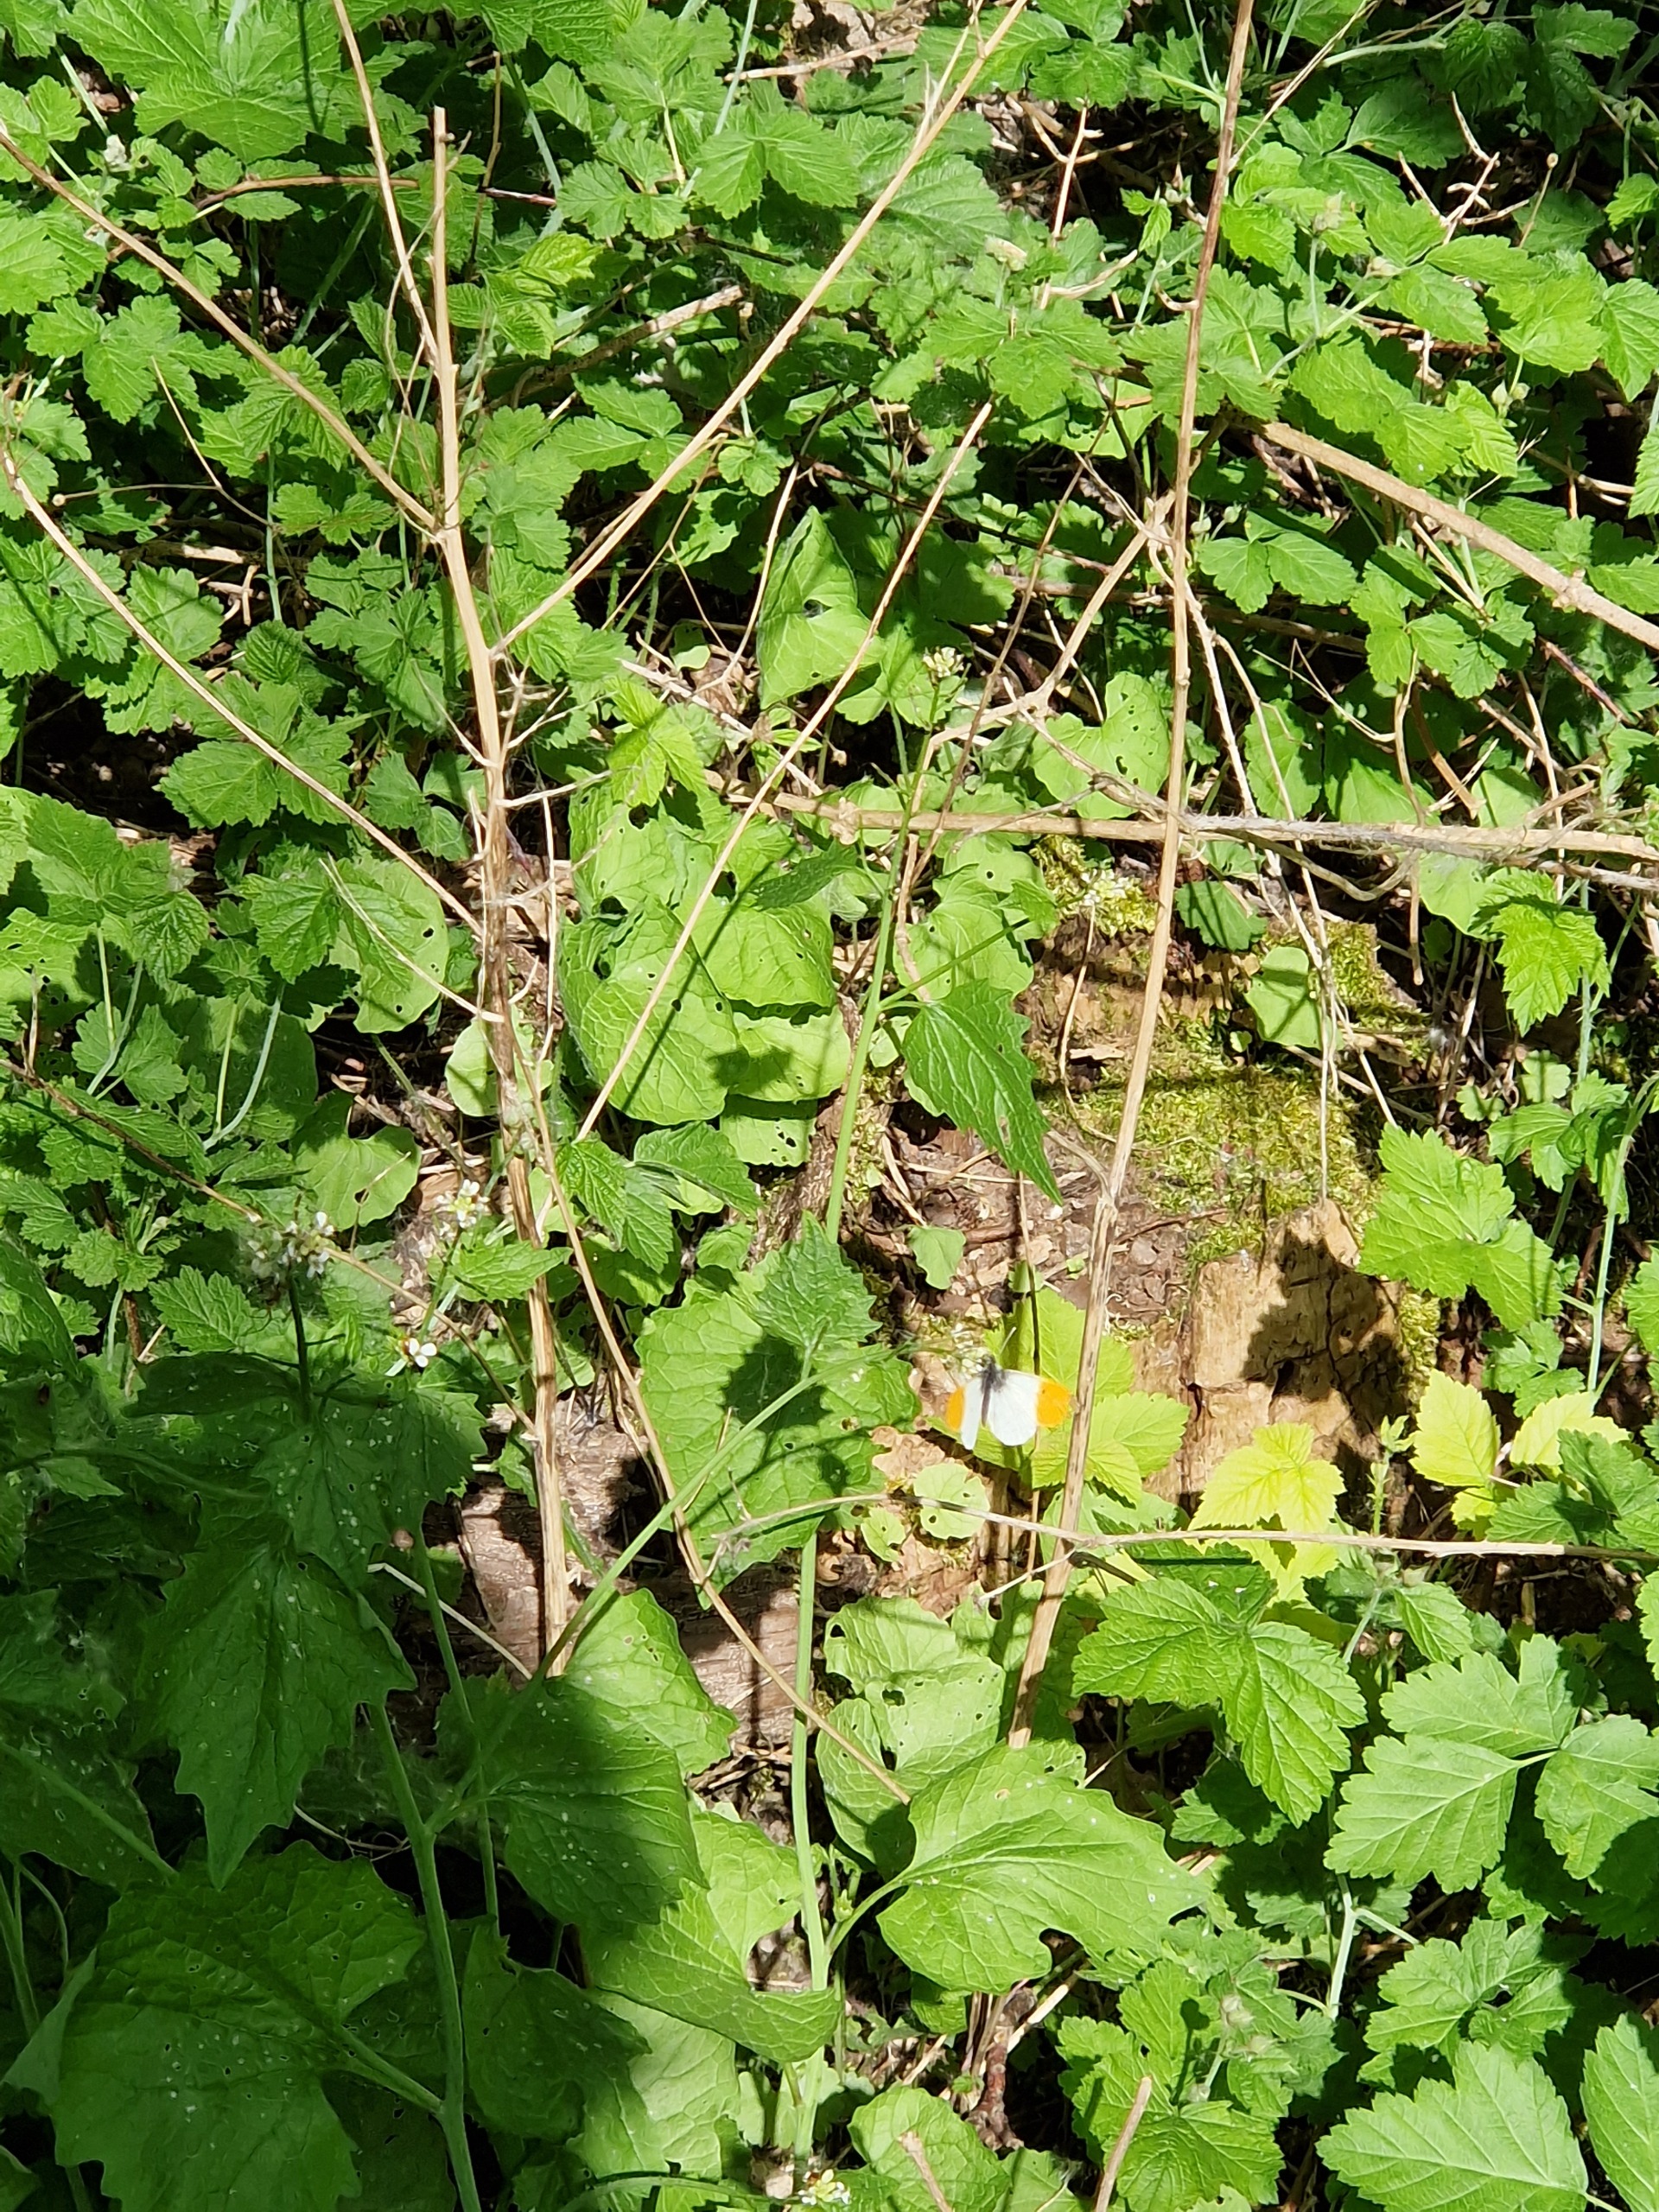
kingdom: Animalia
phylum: Arthropoda
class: Insecta
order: Lepidoptera
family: Pieridae
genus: Anthocharis
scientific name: Anthocharis cardamines
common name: Aurora
